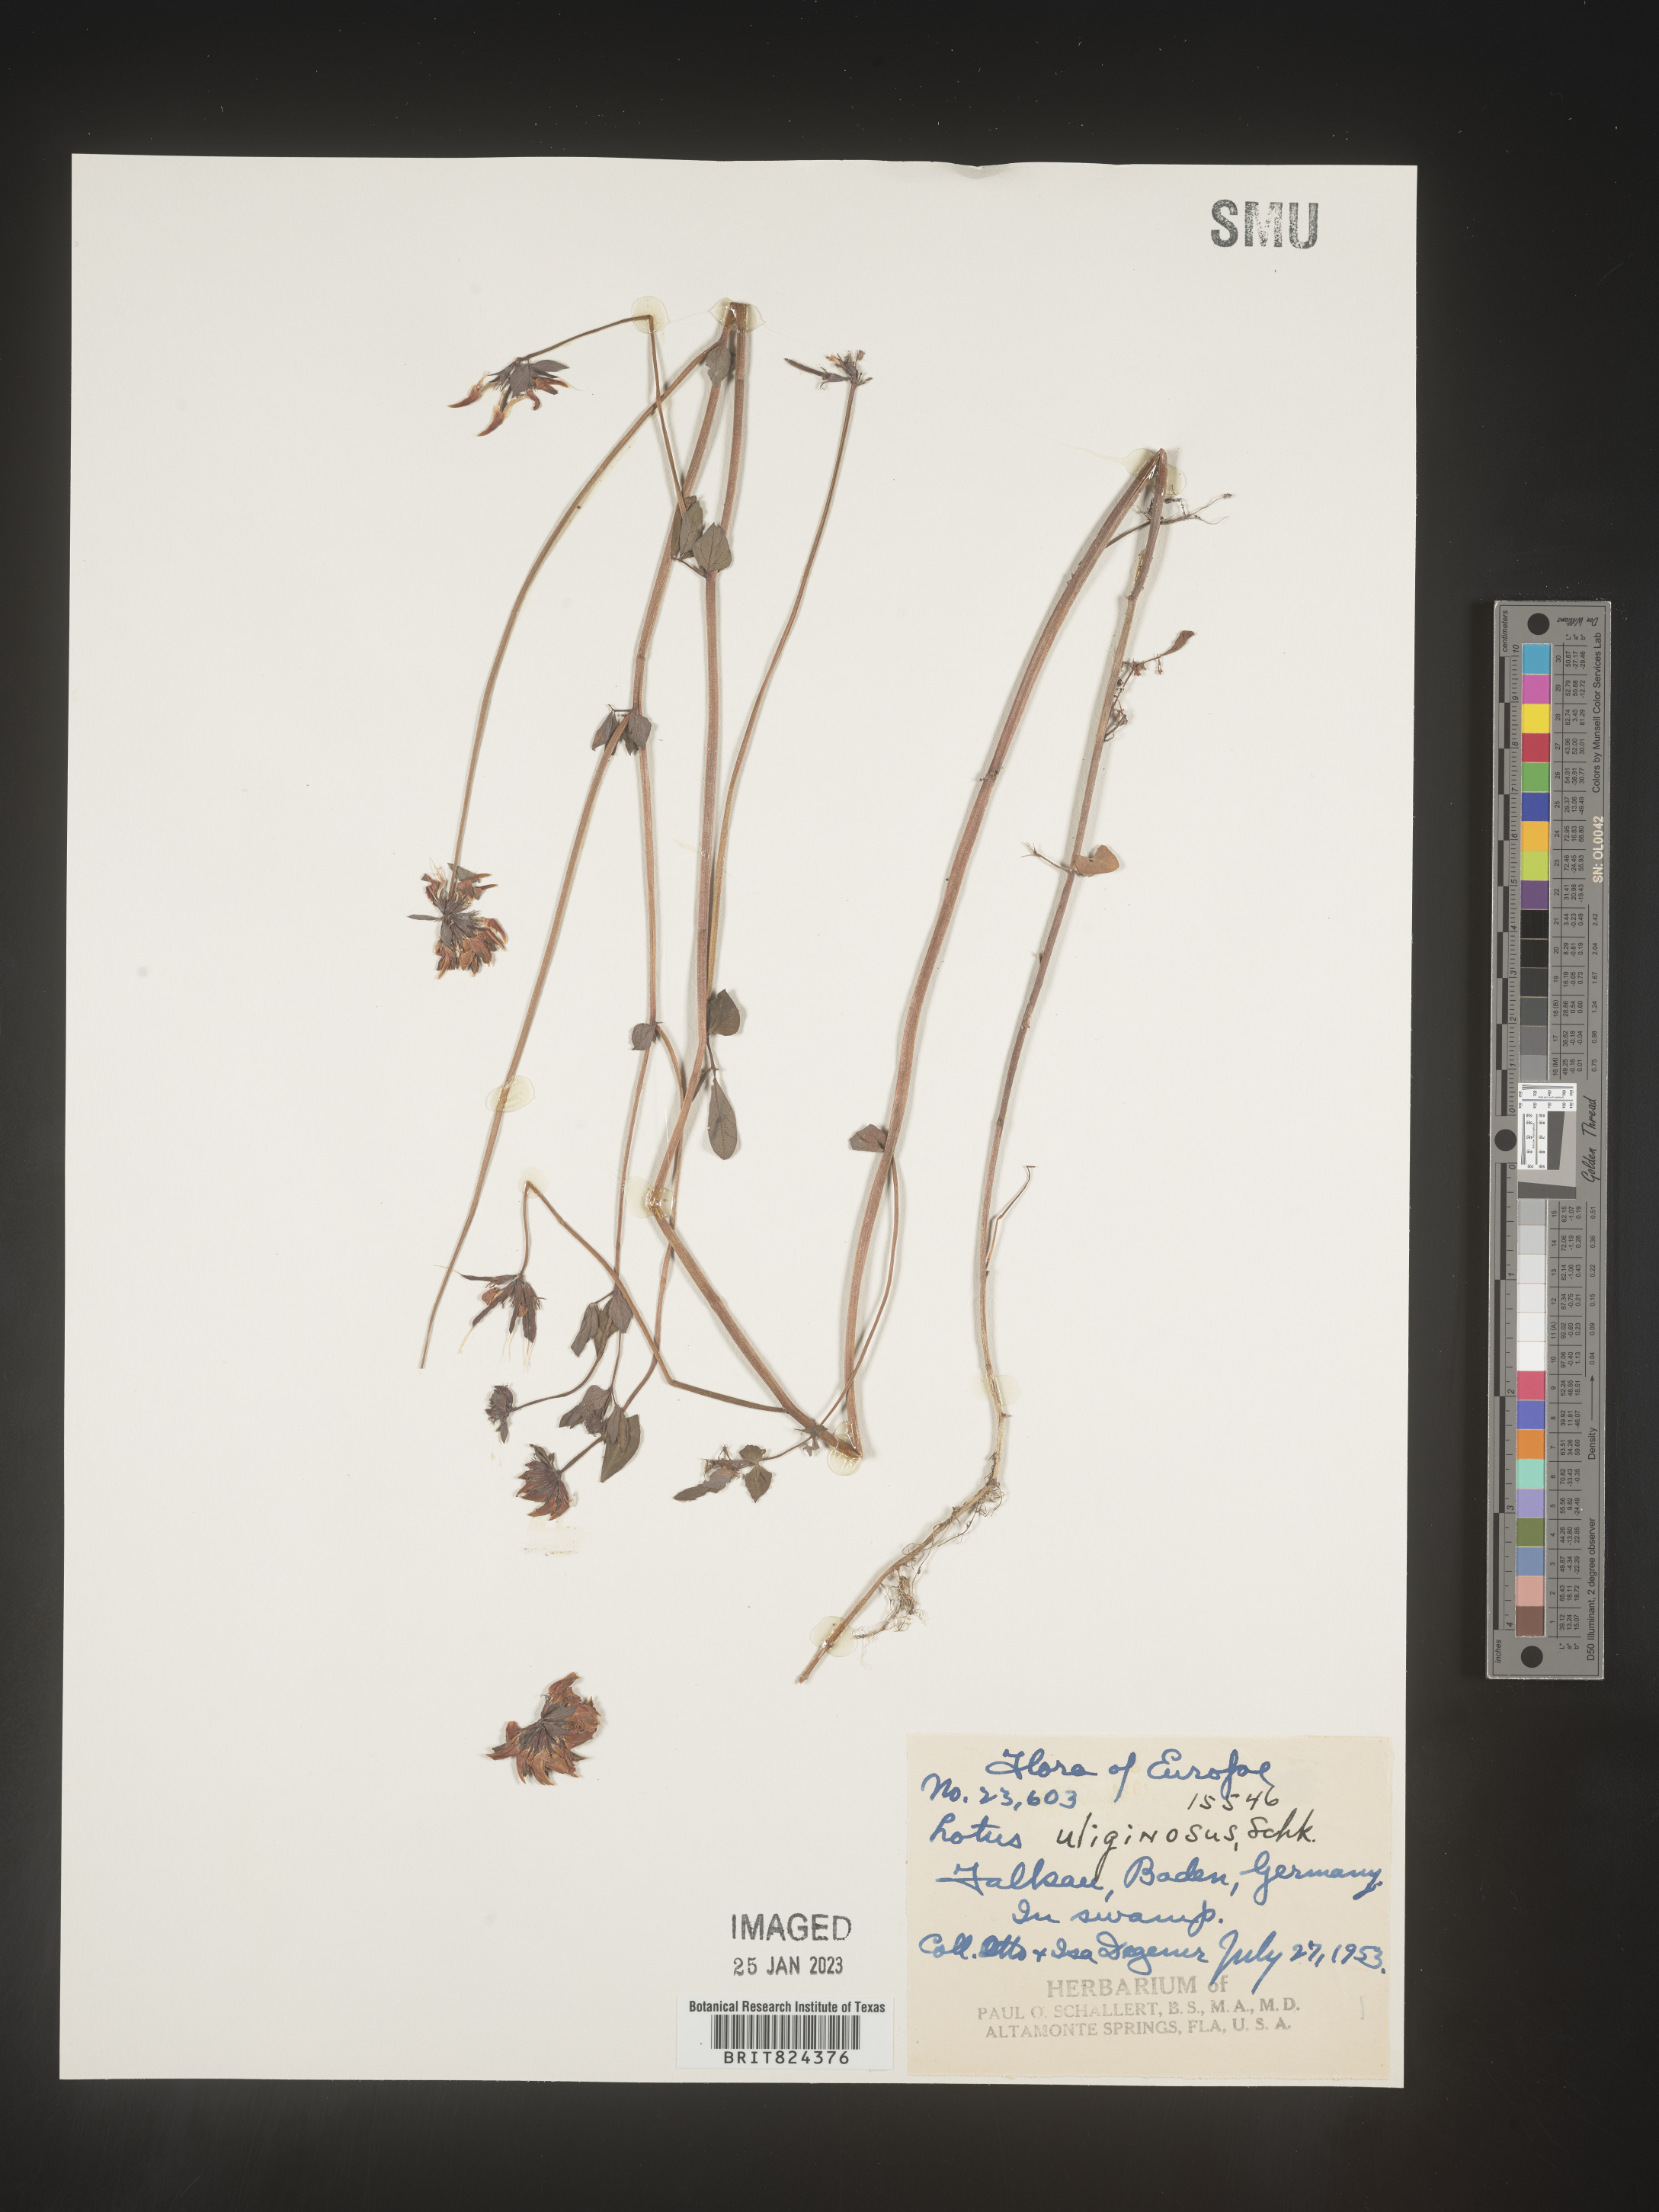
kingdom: Plantae
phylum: Tracheophyta
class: Magnoliopsida
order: Fabales
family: Fabaceae
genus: Lotus
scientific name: Lotus
